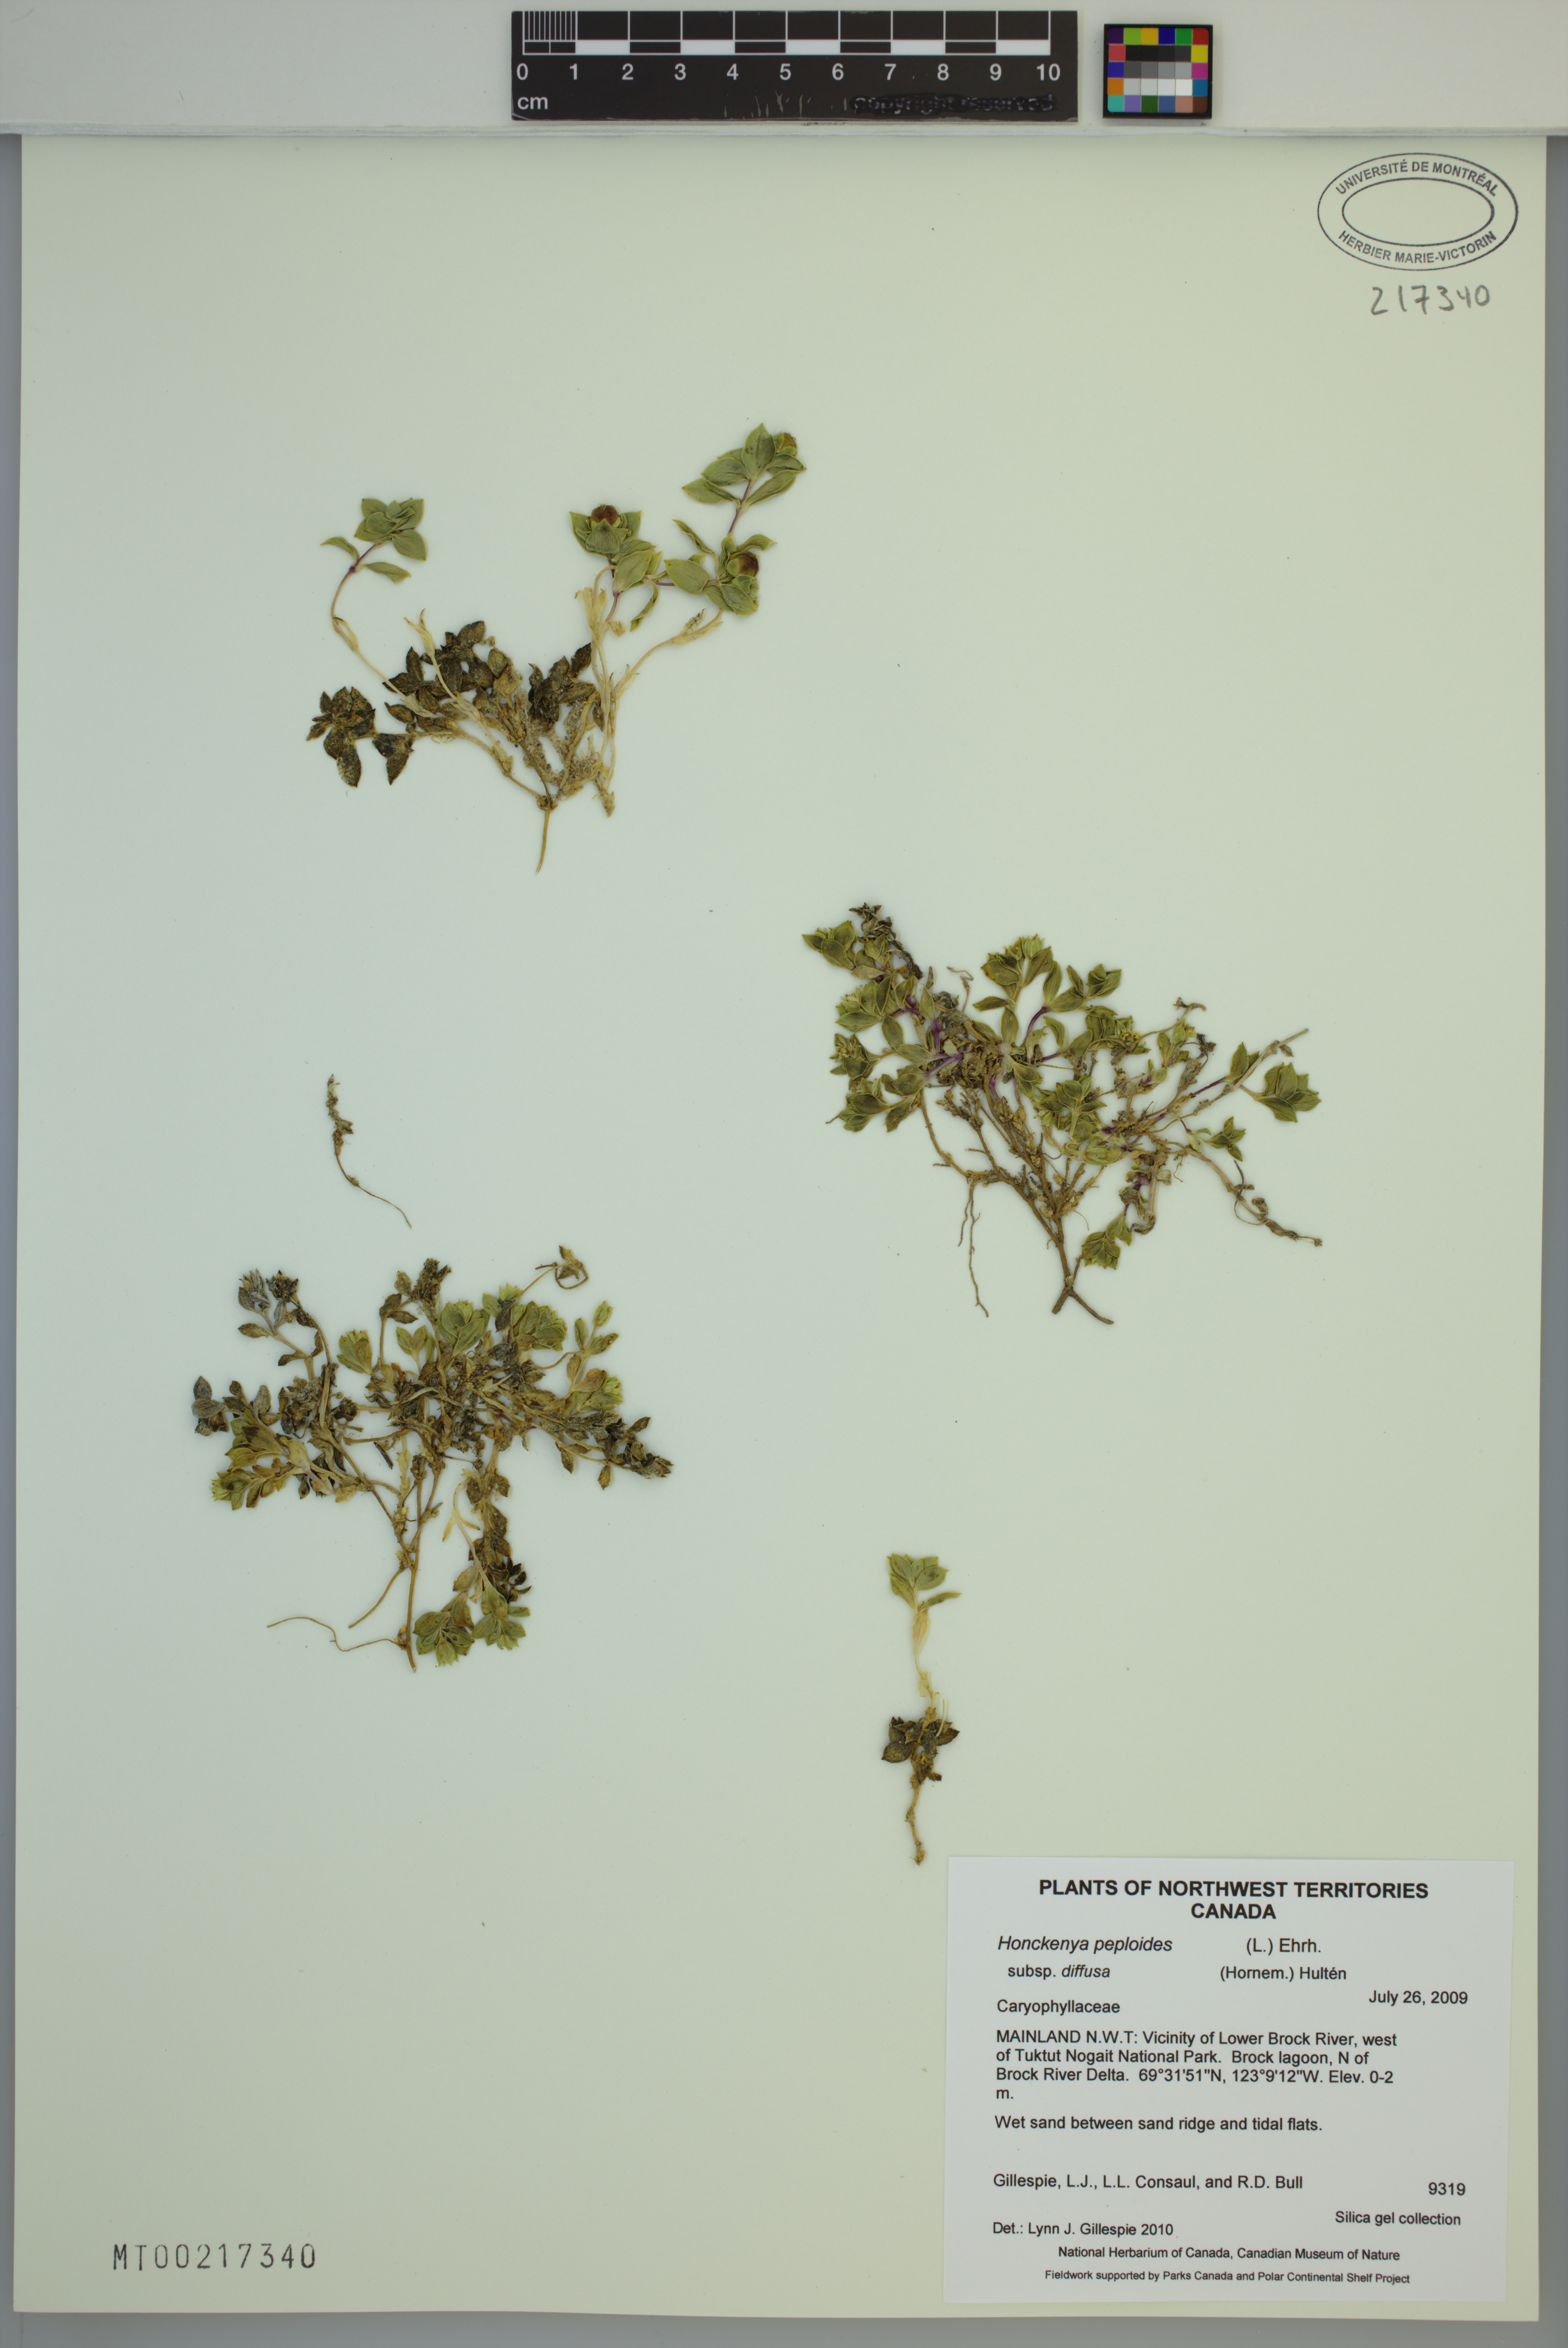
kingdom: Plantae
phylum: Tracheophyta
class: Magnoliopsida
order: Caryophyllales
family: Caryophyllaceae
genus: Honckenya
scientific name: Honckenya peploides
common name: Sea sandwort
